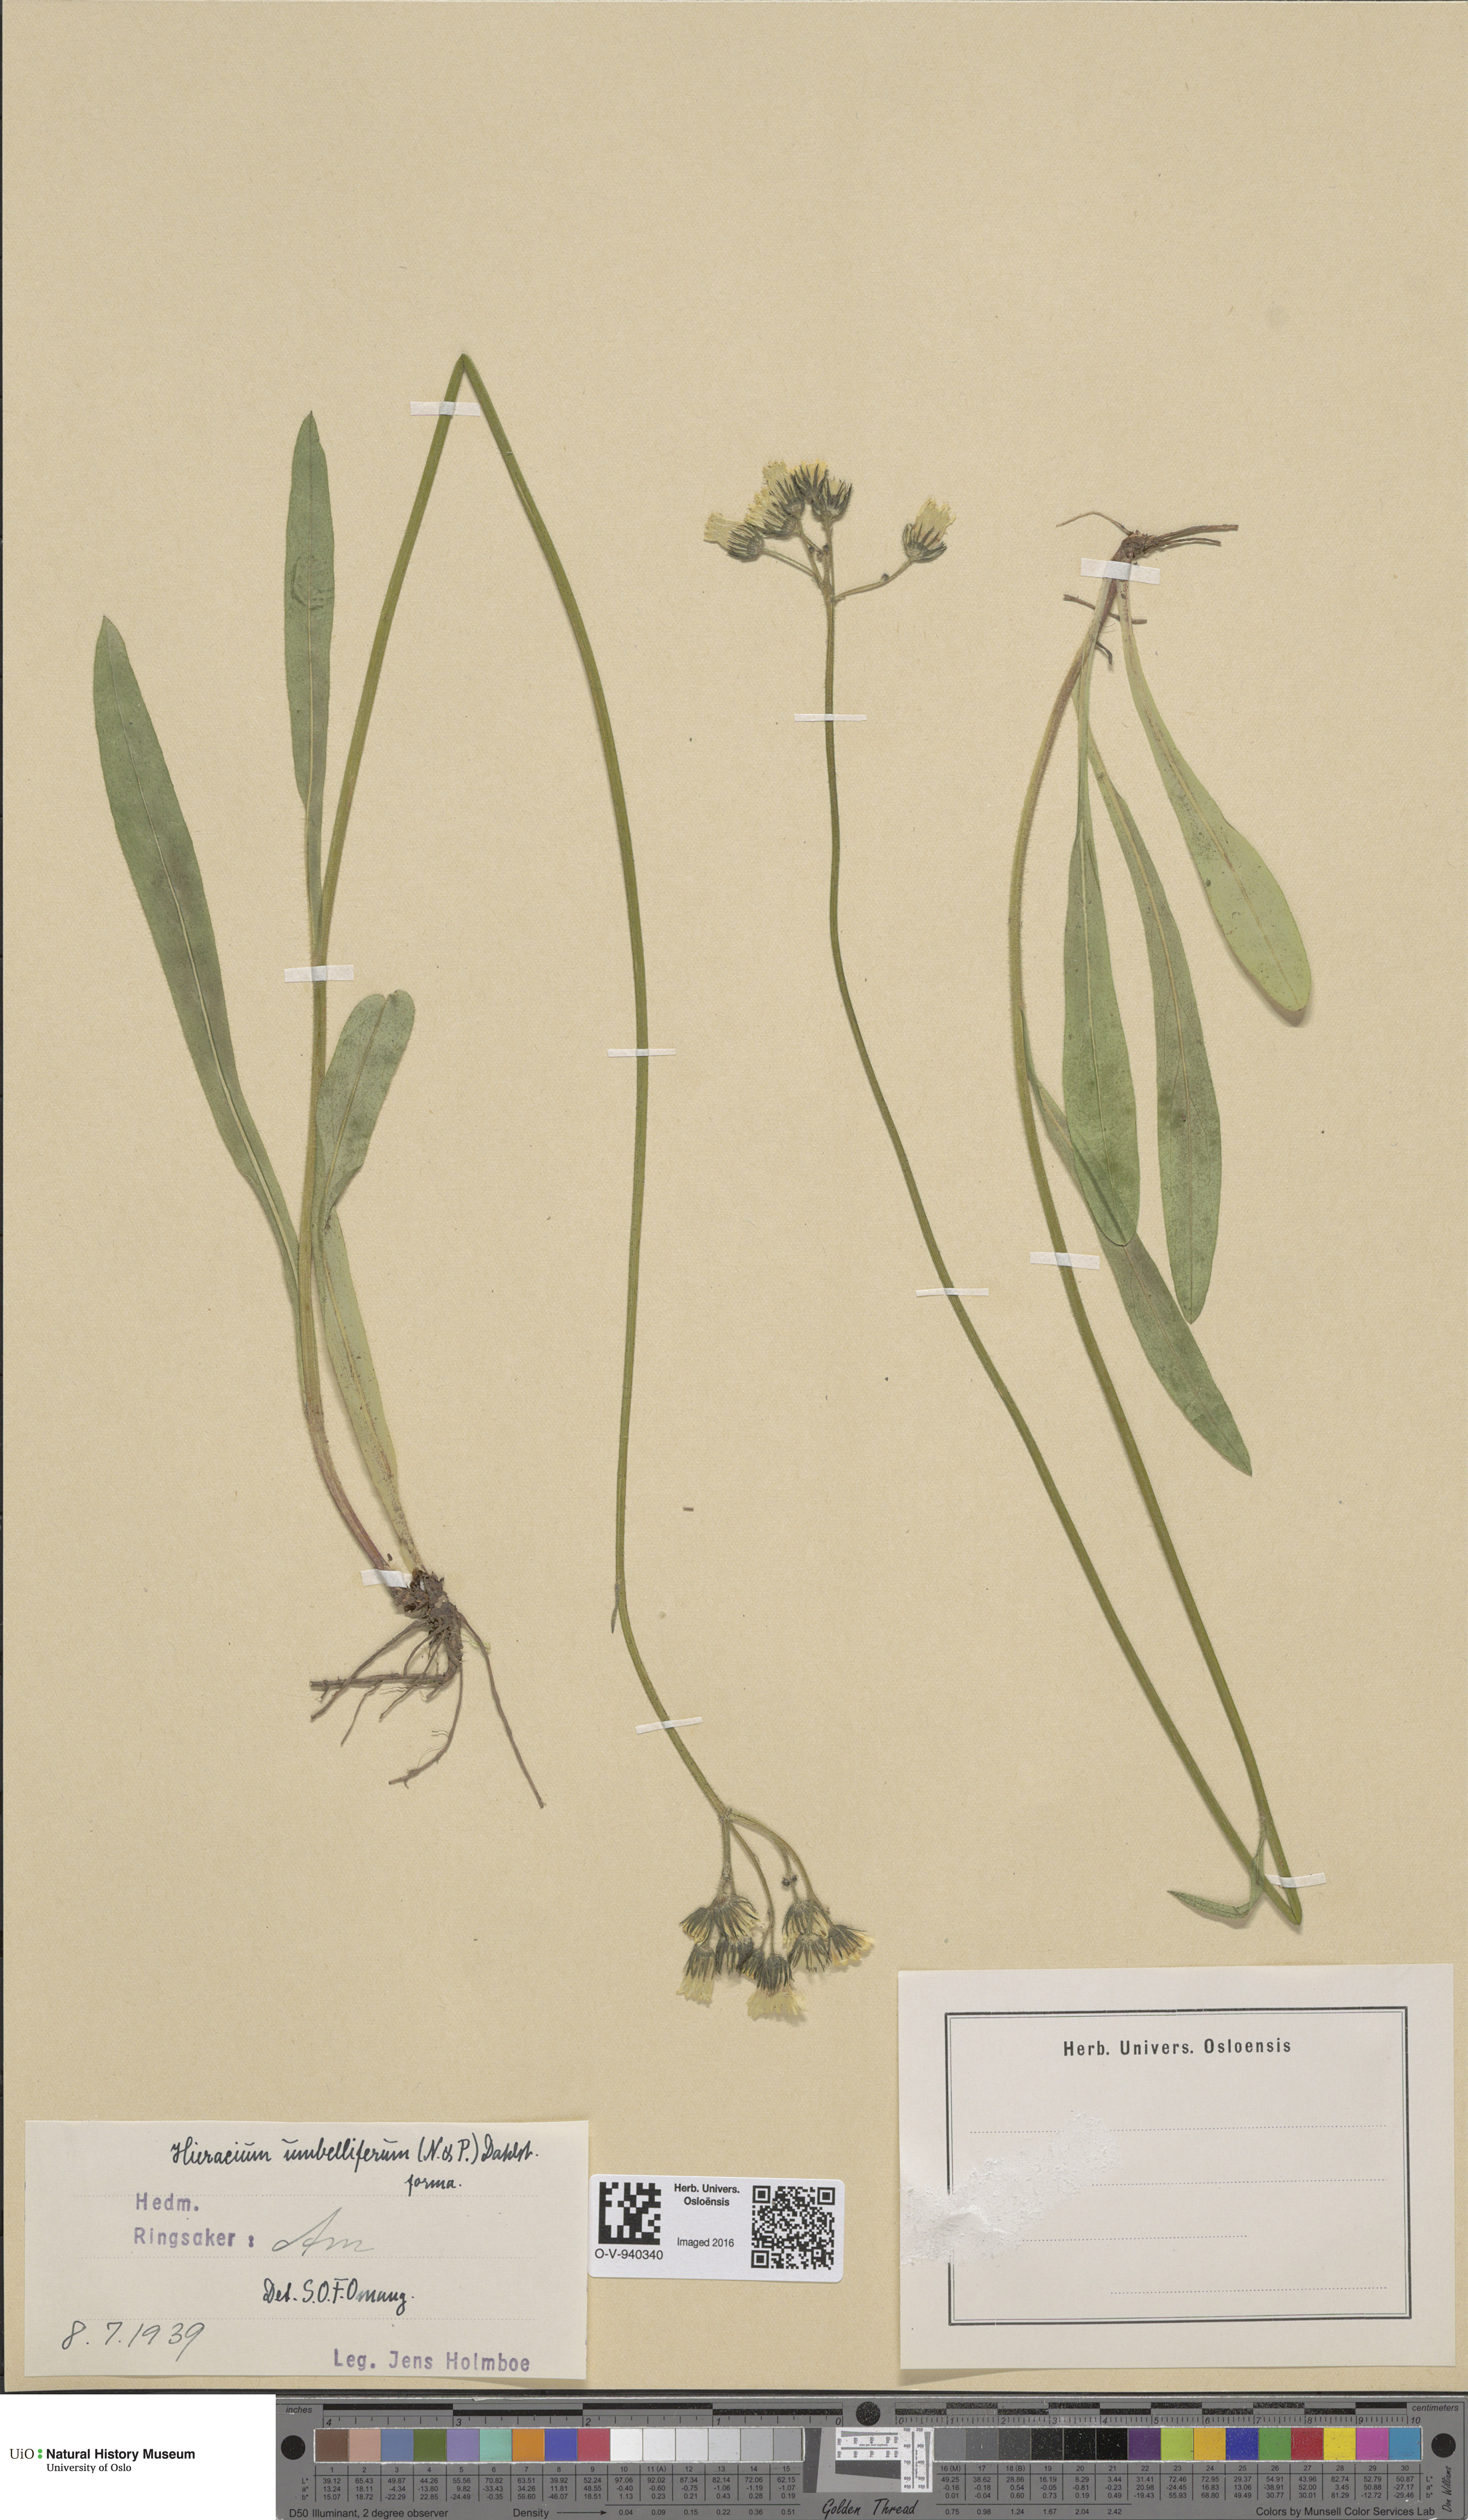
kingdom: Plantae
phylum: Tracheophyta
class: Magnoliopsida
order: Asterales
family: Asteraceae
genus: Pilosella
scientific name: Pilosella glomerata
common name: Queen devil hawkweed
